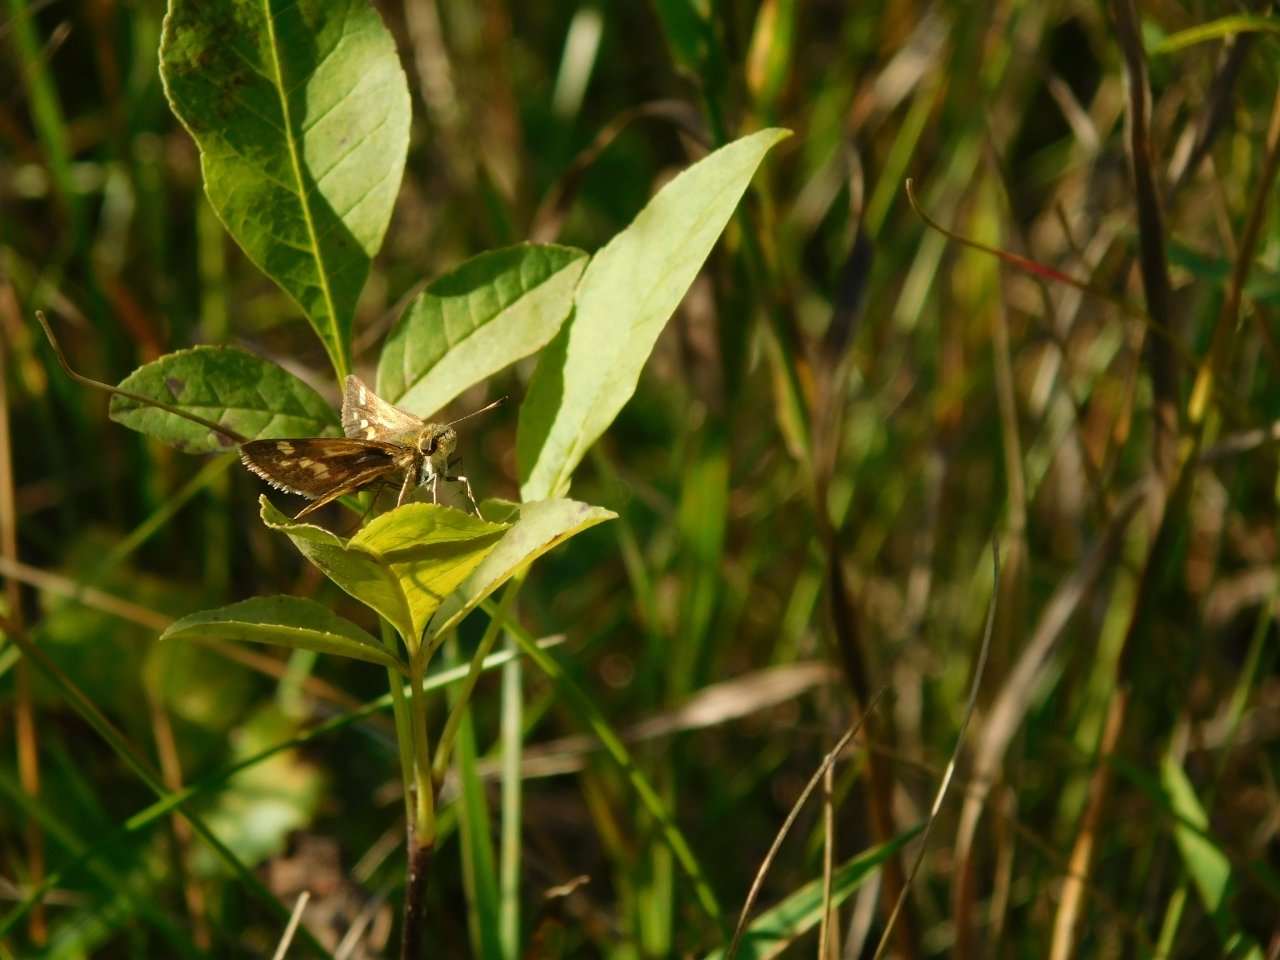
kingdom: Animalia
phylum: Arthropoda
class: Insecta
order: Lepidoptera
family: Hesperiidae
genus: Polites
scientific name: Polites coras
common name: Peck's Skipper
